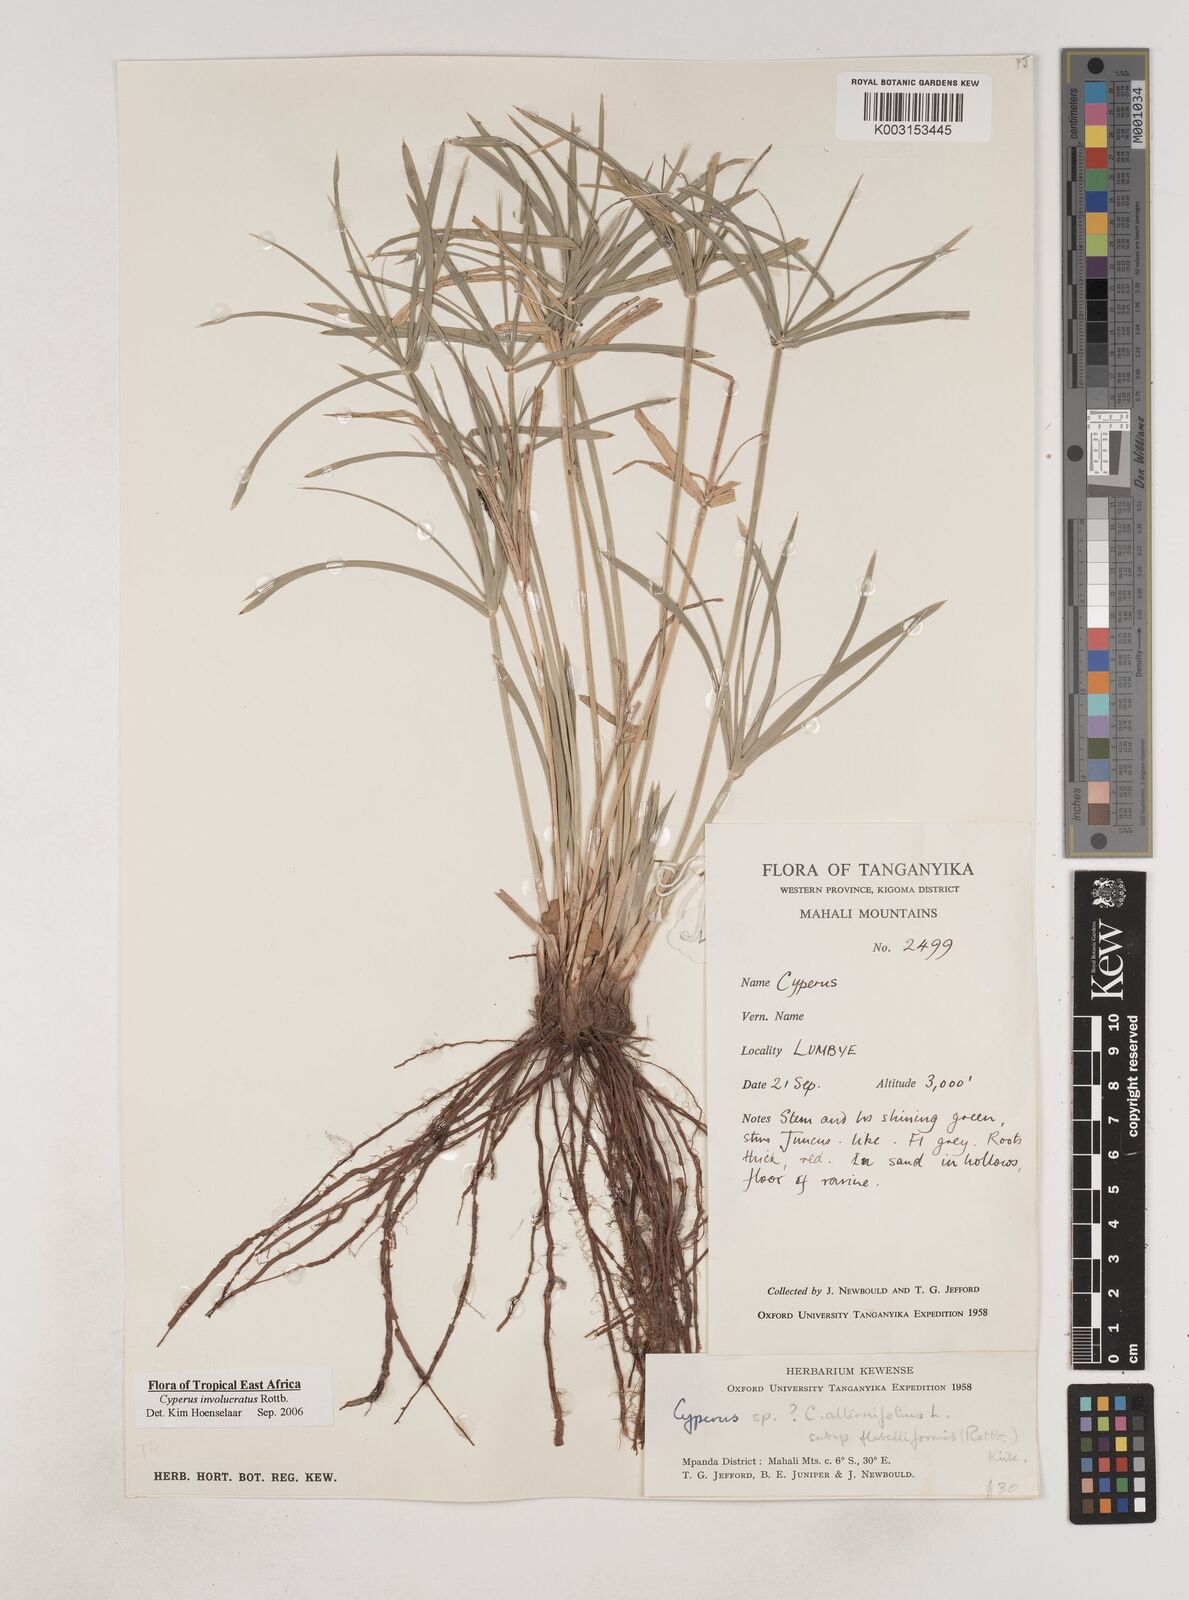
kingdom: Plantae
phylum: Tracheophyta
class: Liliopsida
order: Poales
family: Cyperaceae
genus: Cyperus
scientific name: Cyperus alternifolius
